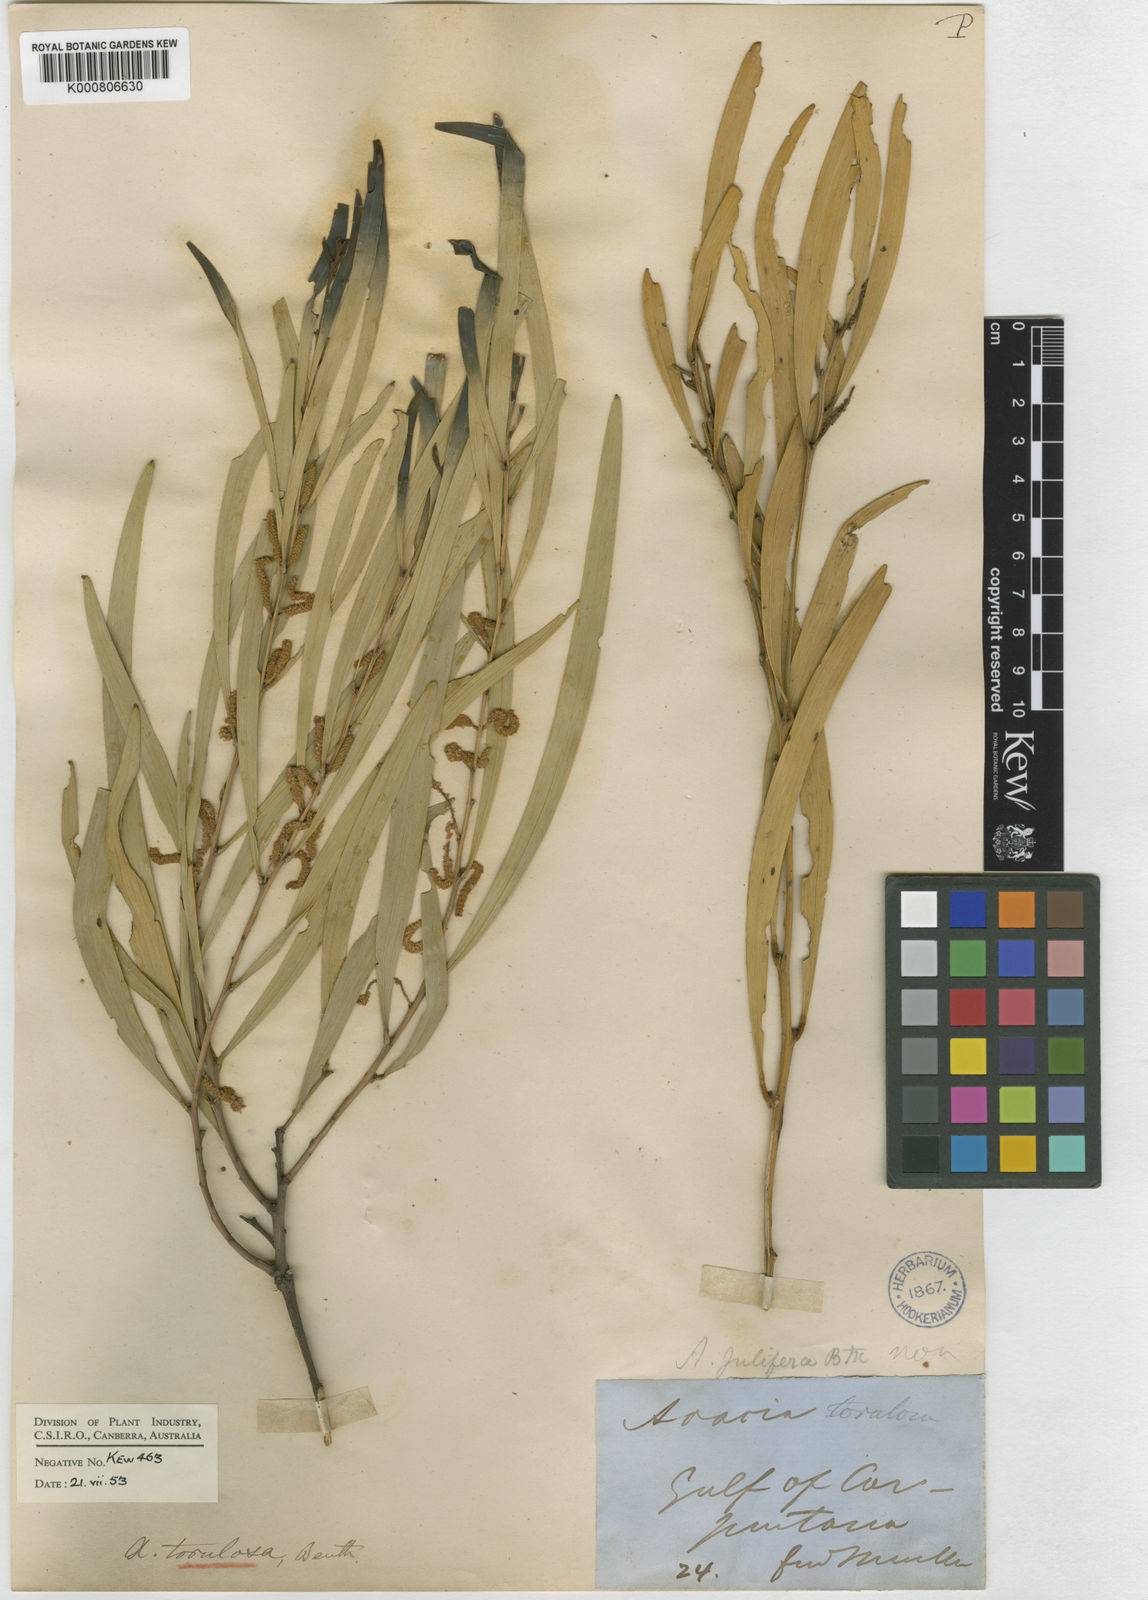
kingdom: Plantae
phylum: Tracheophyta
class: Magnoliopsida
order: Fabales
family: Fabaceae
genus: Acacia
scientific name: Acacia torulosa
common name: Torulosa wattle
